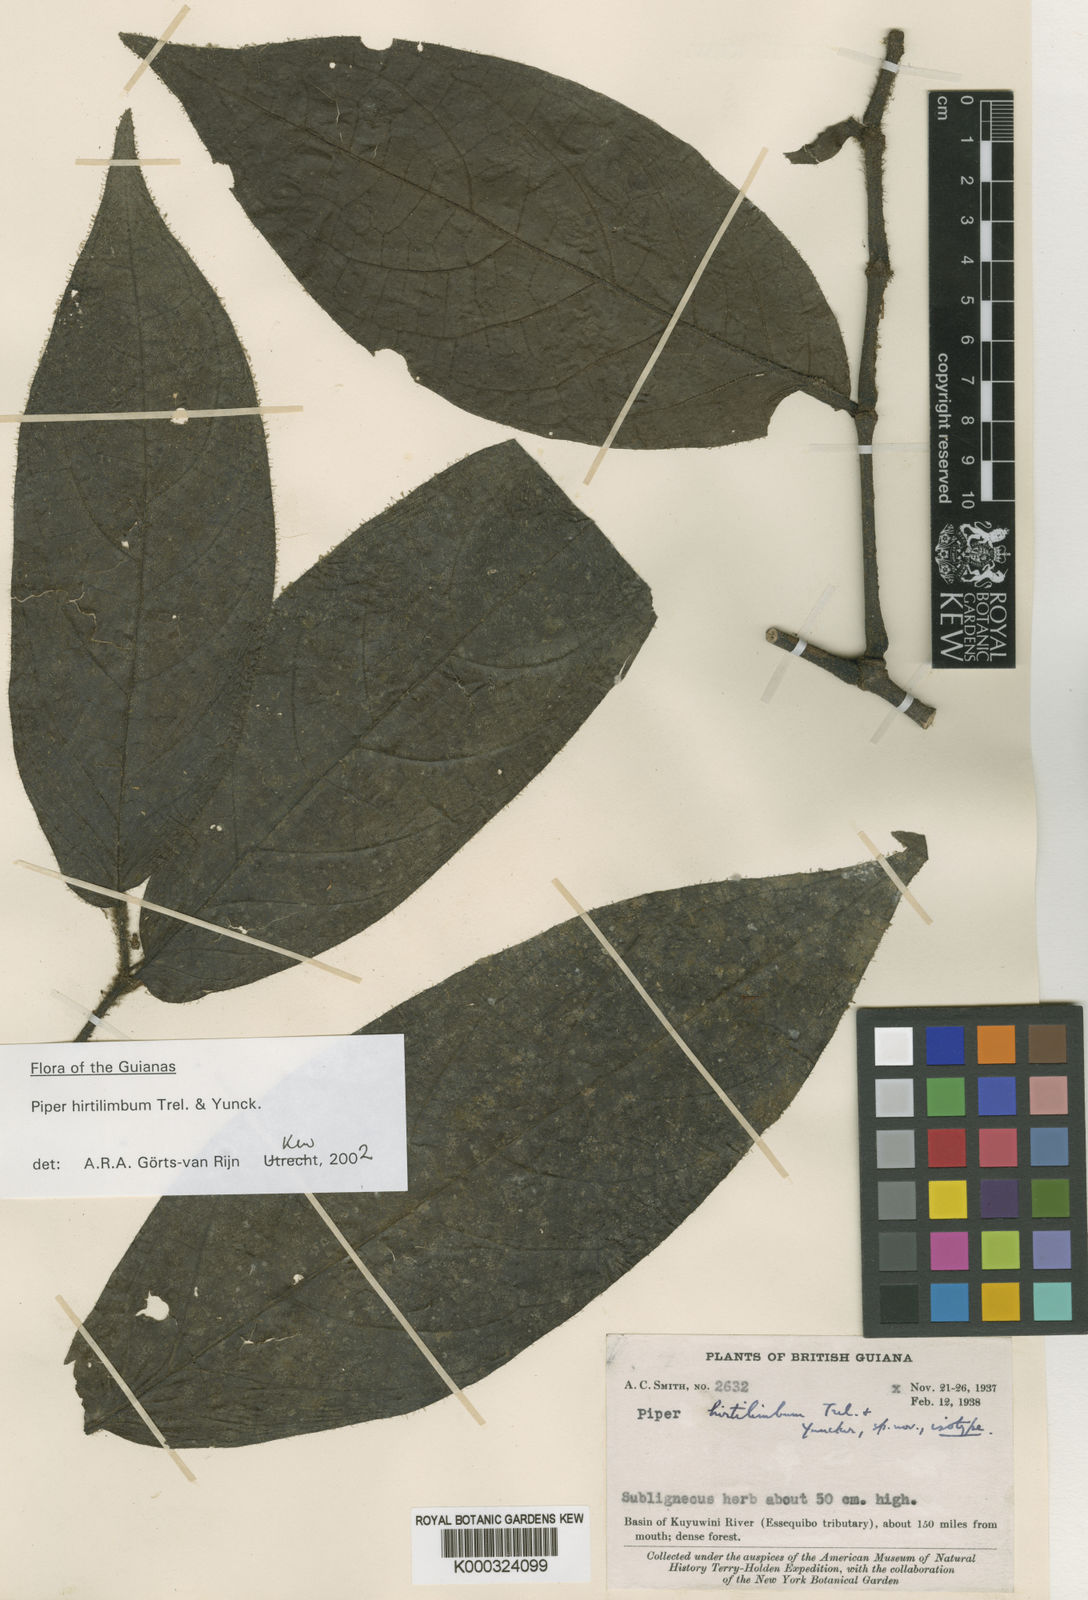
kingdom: Plantae
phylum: Tracheophyta
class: Magnoliopsida
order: Piperales
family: Piperaceae
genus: Piper
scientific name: Piper hirtilimbum
